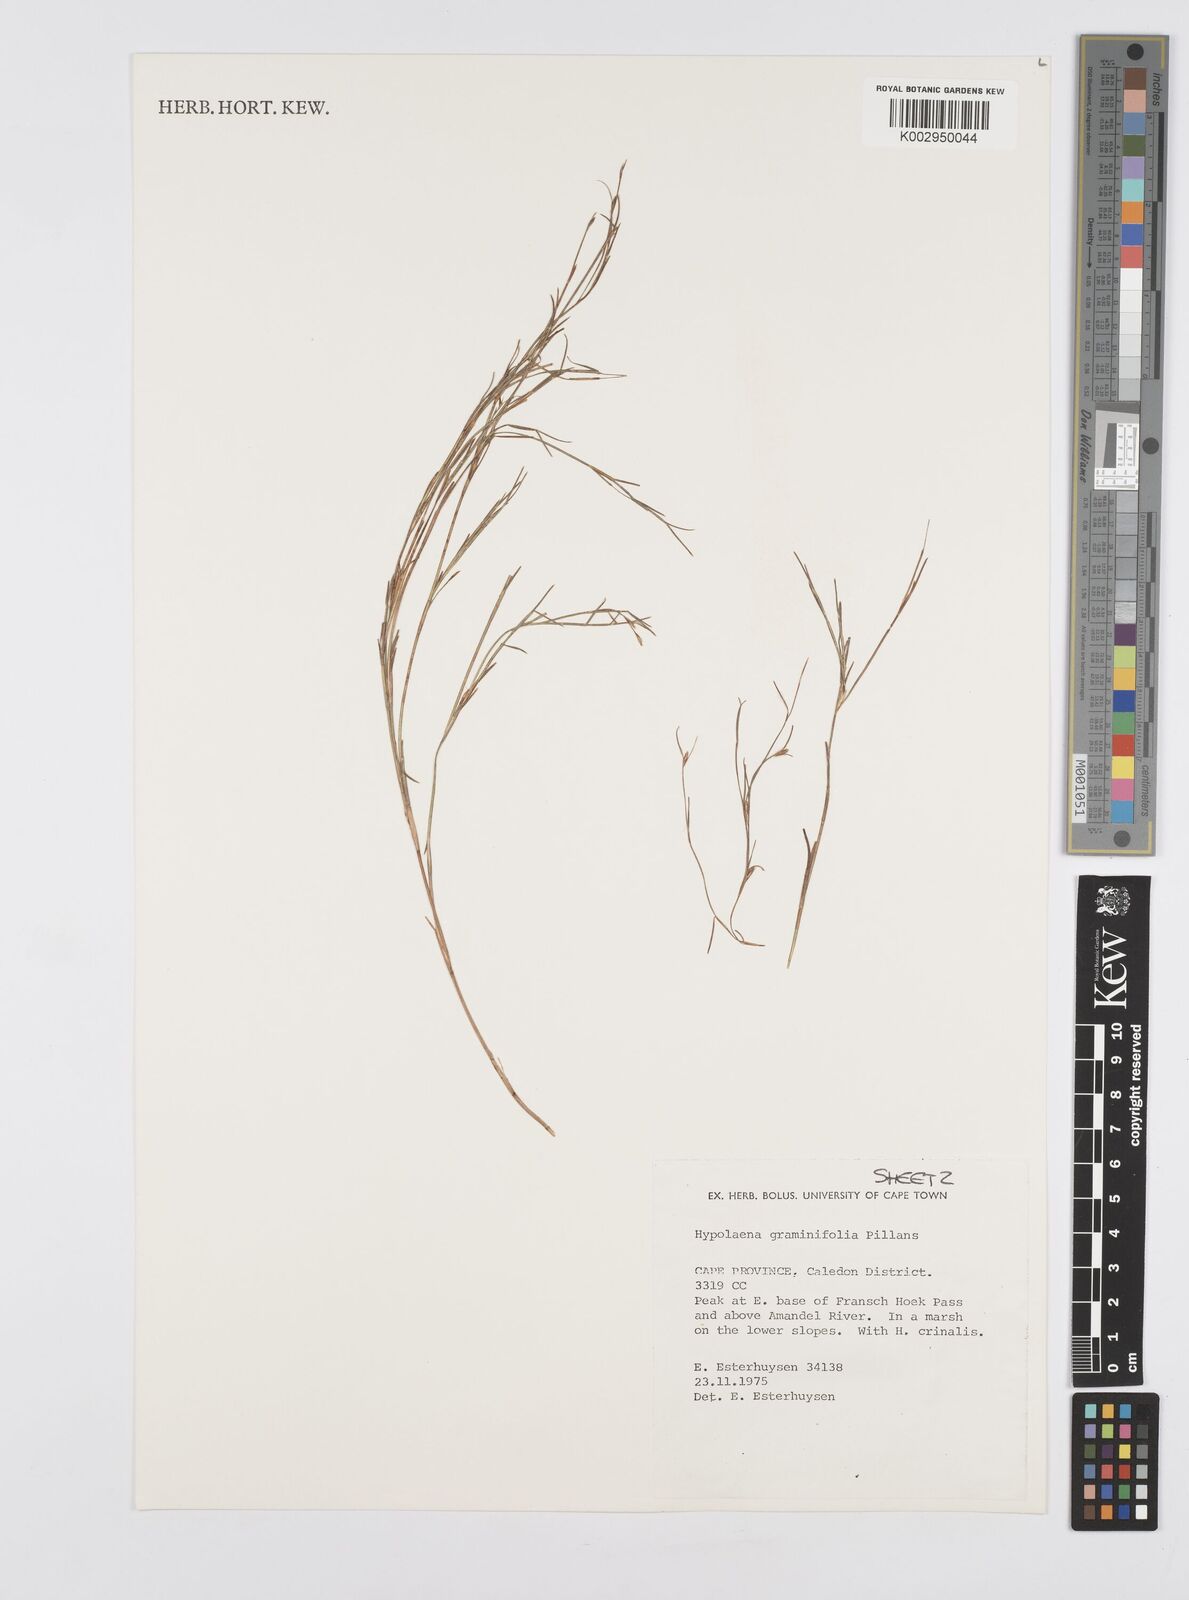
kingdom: Plantae
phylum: Tracheophyta
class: Liliopsida
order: Poales
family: Restionaceae
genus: Anthochortus
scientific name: Anthochortus graminifolius
